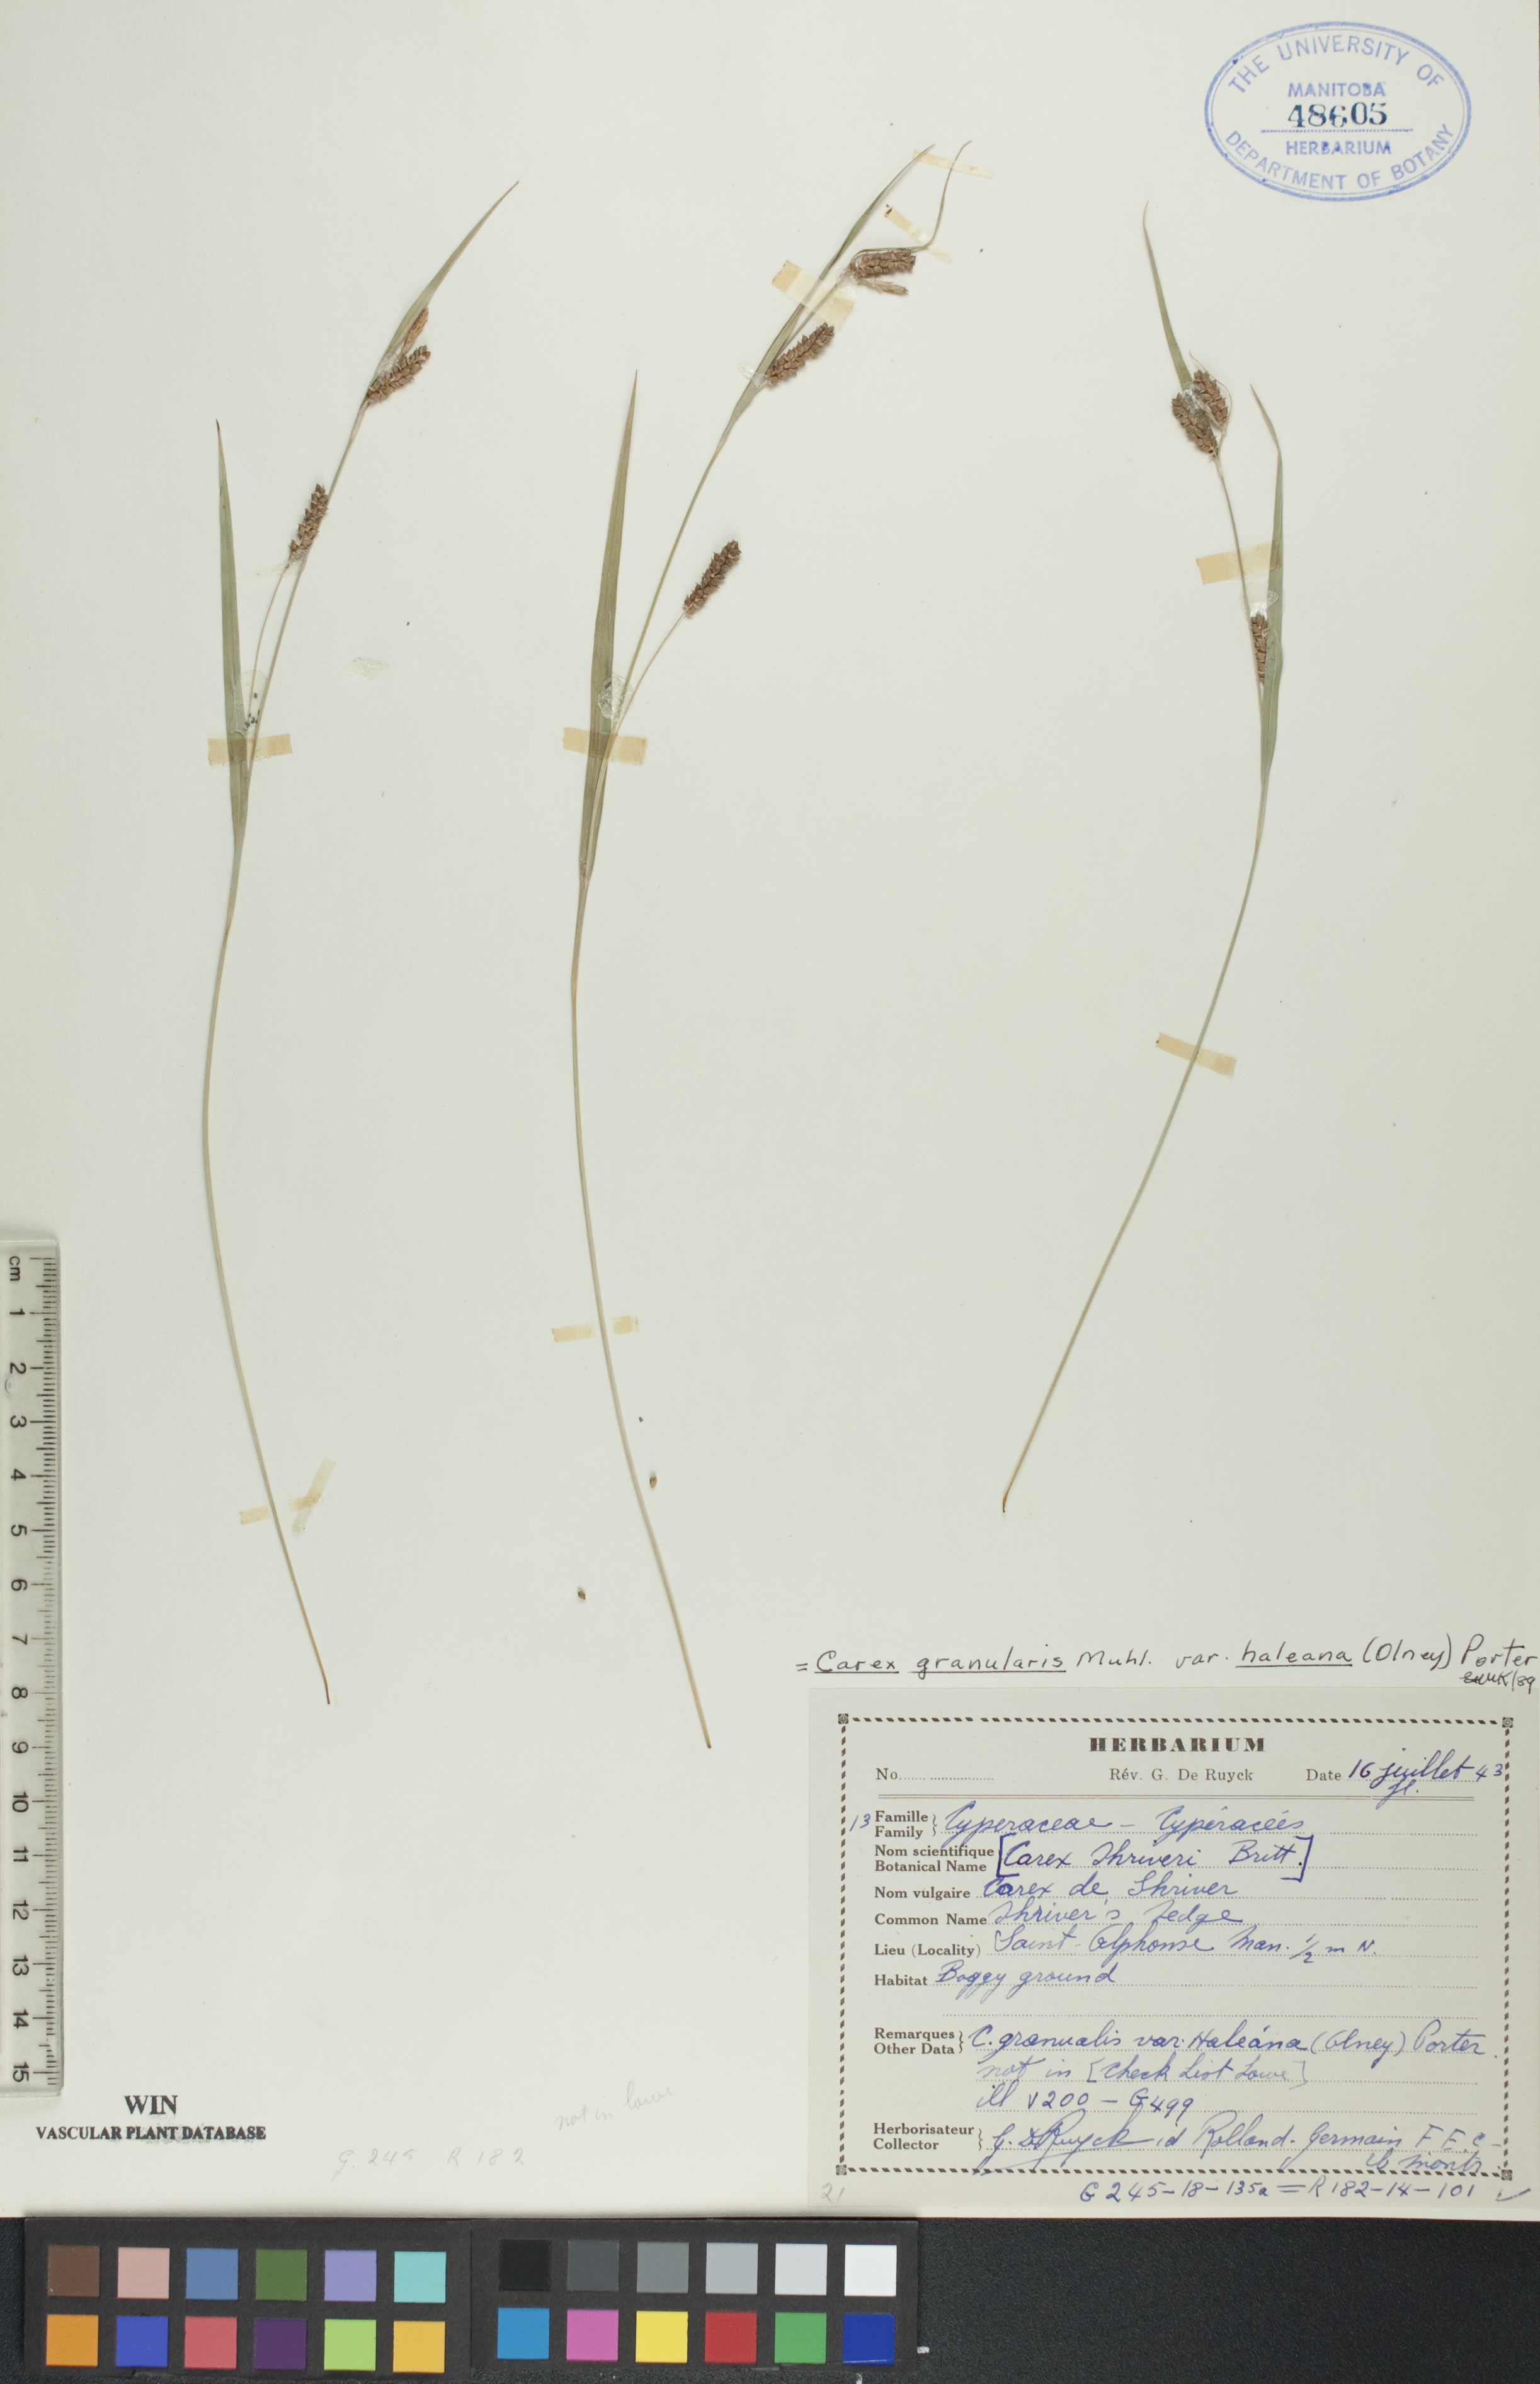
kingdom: Plantae
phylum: Tracheophyta
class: Liliopsida
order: Poales
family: Cyperaceae
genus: Carex
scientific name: Carex granularis
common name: Granular sedge
